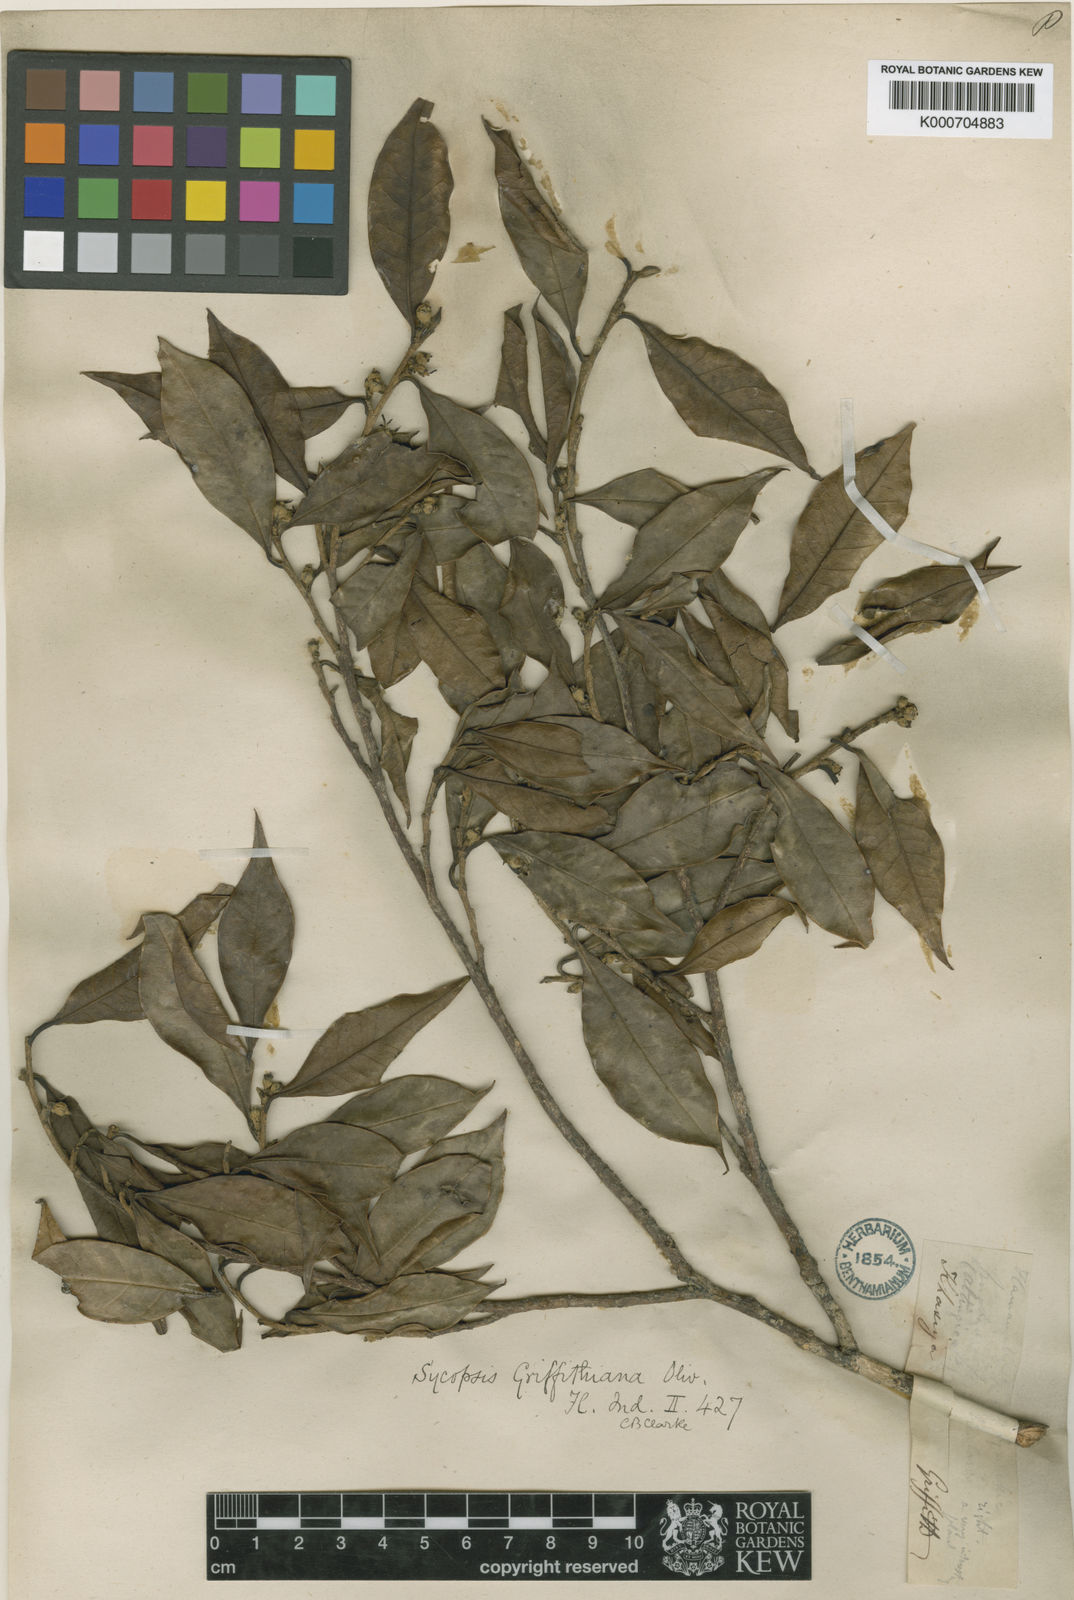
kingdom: Plantae
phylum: Tracheophyta
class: Magnoliopsida
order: Saxifragales
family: Hamamelidaceae
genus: Eustigma
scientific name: Eustigma lenticellatum
